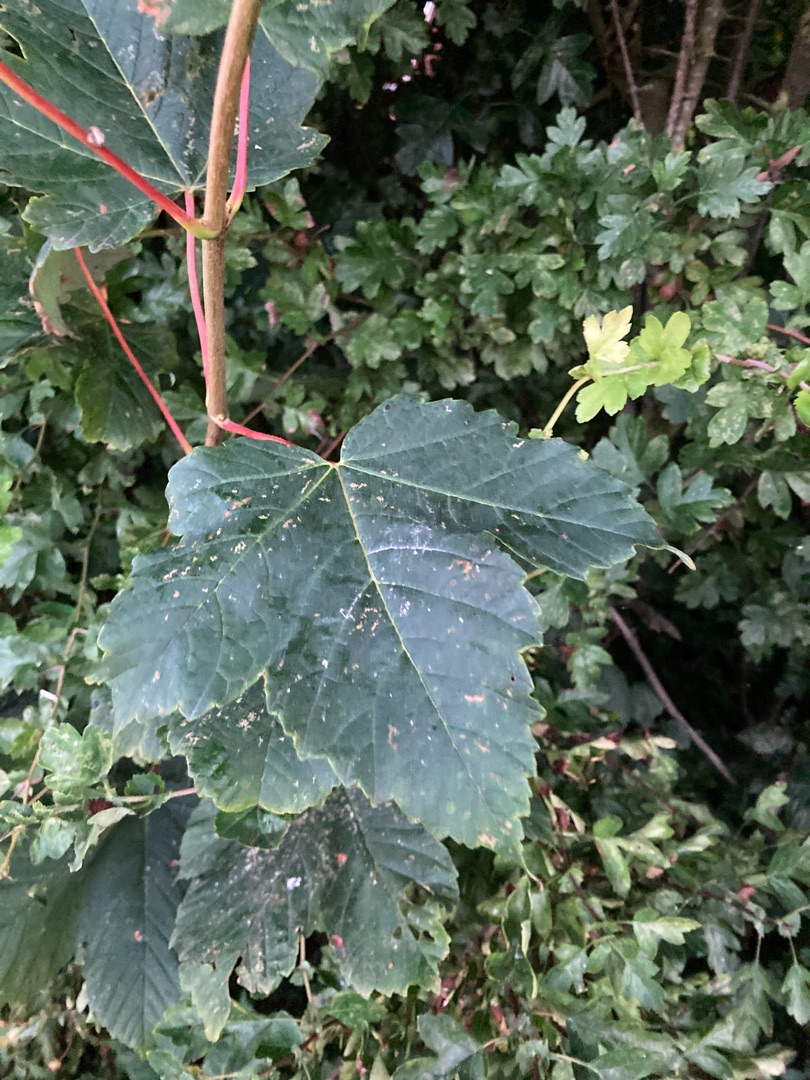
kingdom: Plantae
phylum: Tracheophyta
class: Magnoliopsida
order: Sapindales
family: Sapindaceae
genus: Acer
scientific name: Acer pseudoplatanus
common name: Ahorn
